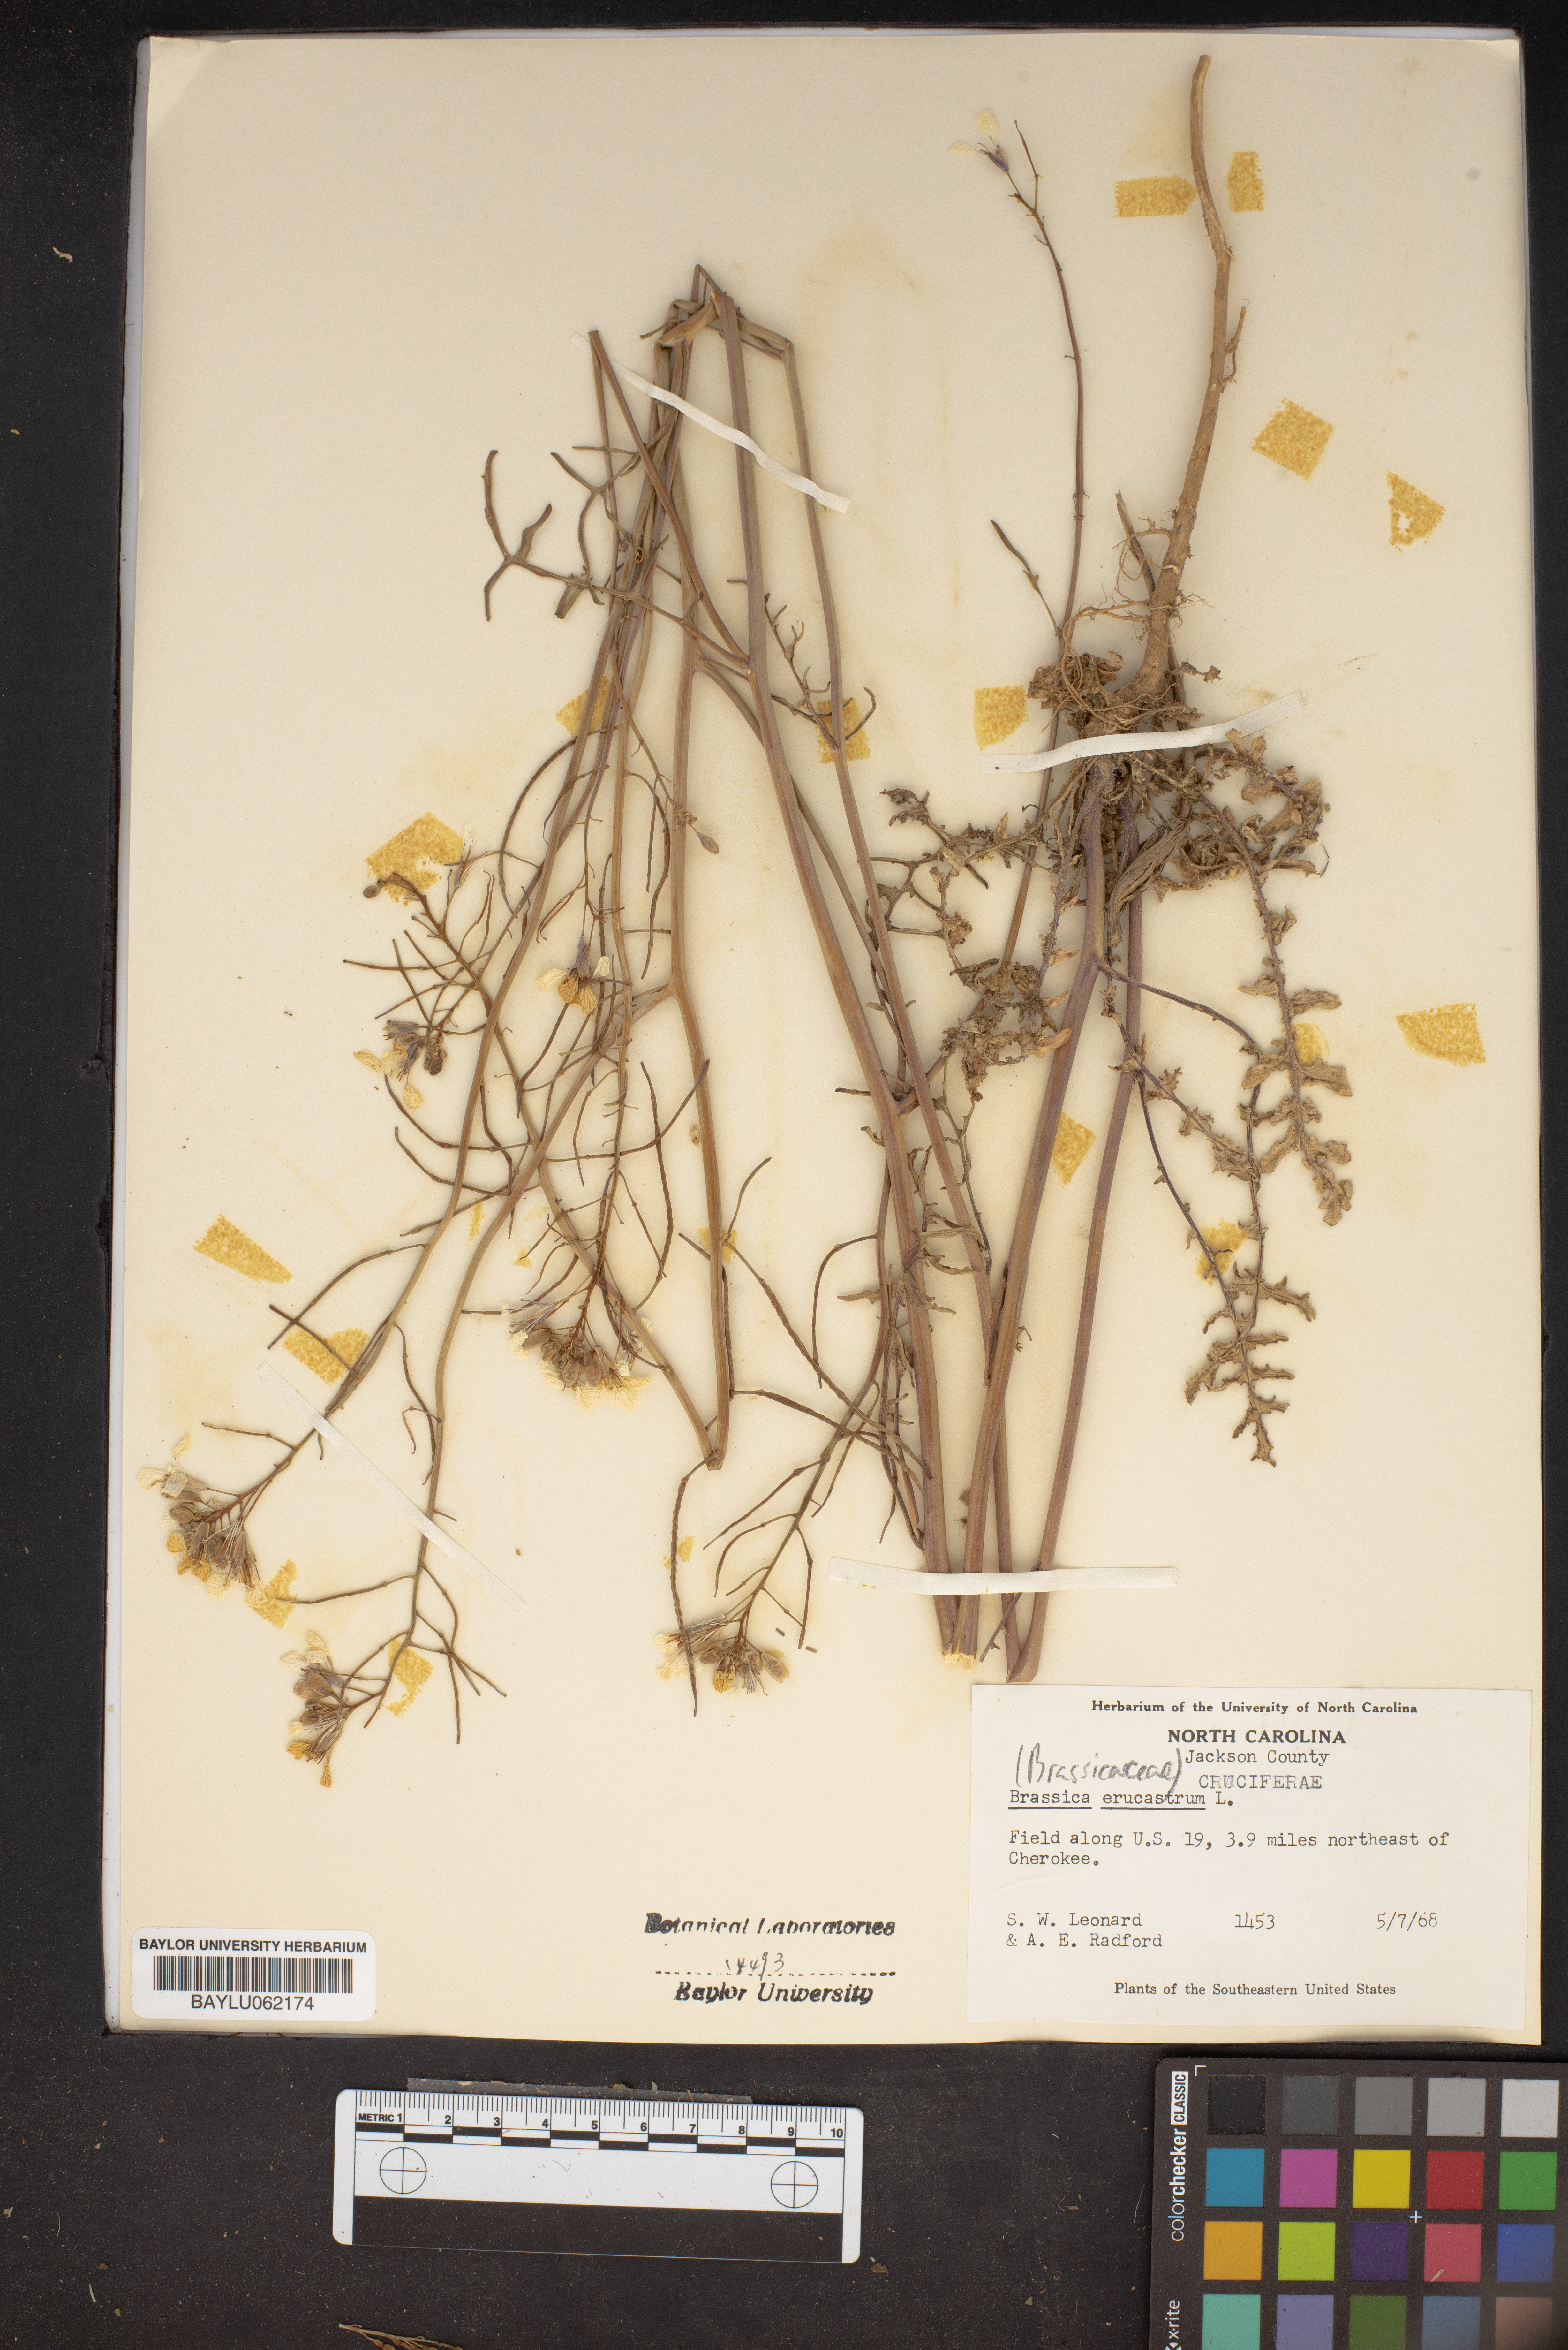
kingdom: Plantae
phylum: Tracheophyta
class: Magnoliopsida
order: Brassicales
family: Brassicaceae
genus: Erucastrum
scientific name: Erucastrum nasturtiifolium
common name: Watercress-leaf rocket
